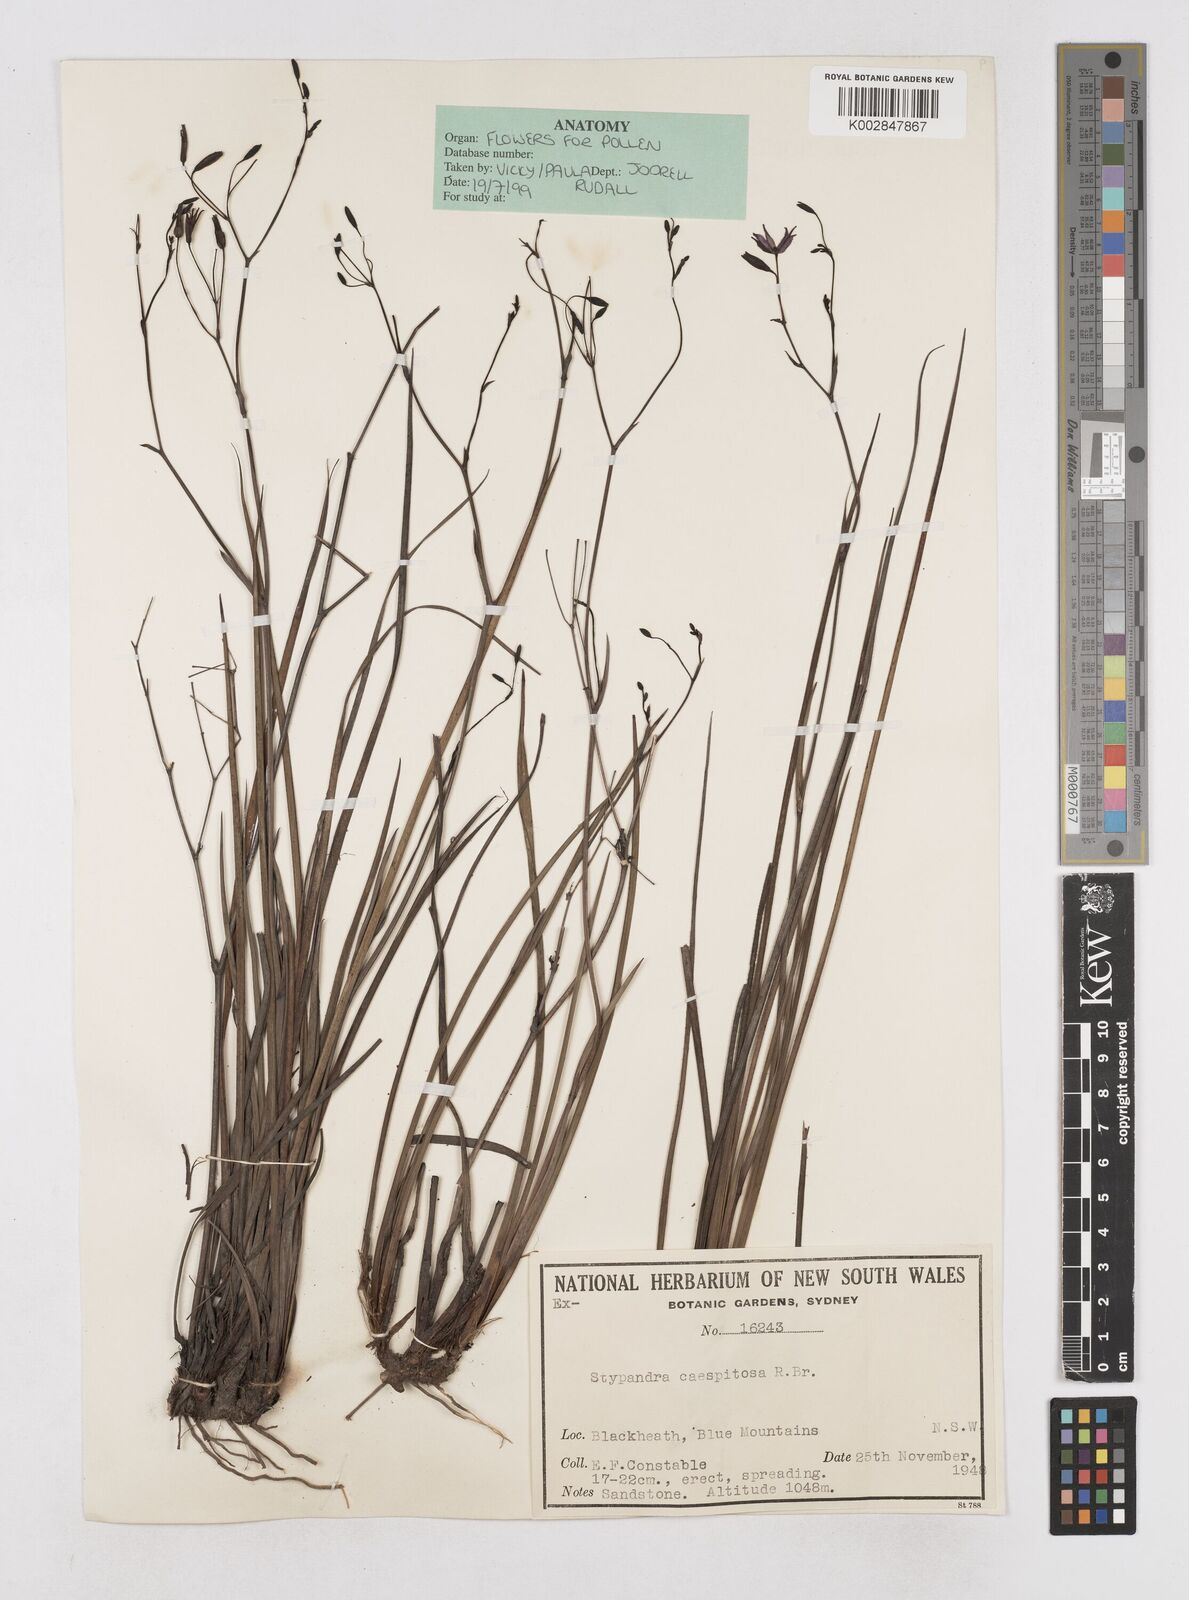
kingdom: Plantae
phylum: Tracheophyta
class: Liliopsida
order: Asparagales
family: Asphodelaceae
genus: Thelionema
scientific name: Thelionema caespitosum
